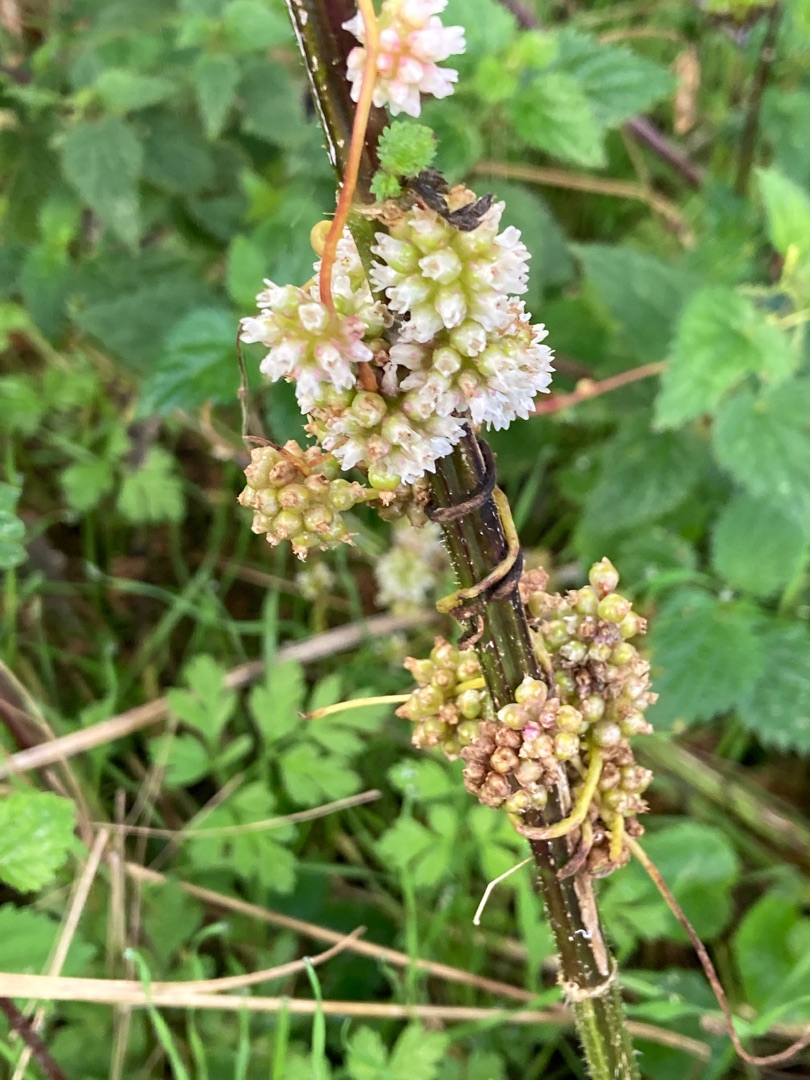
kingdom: Plantae
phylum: Tracheophyta
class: Magnoliopsida
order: Solanales
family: Convolvulaceae
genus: Cuscuta
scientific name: Cuscuta europaea
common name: Nælde-silke
